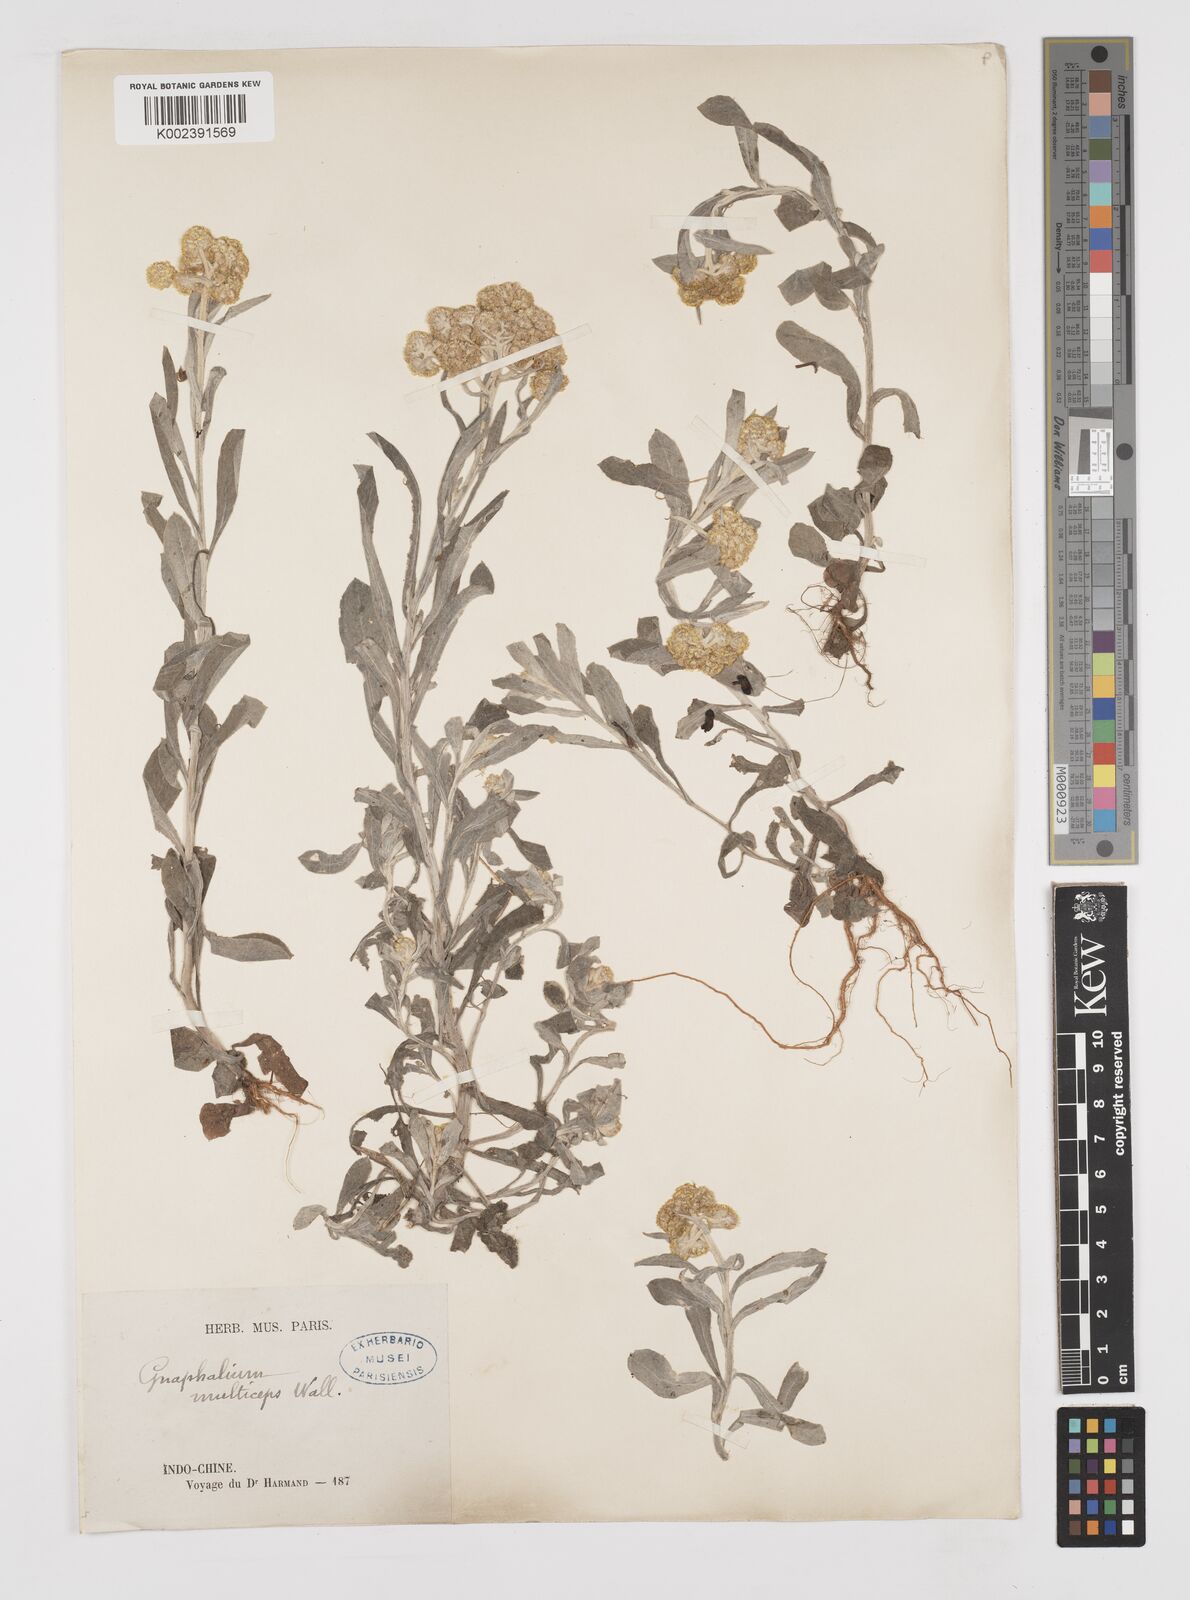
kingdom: Plantae
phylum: Tracheophyta
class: Magnoliopsida
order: Asterales
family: Asteraceae
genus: Pseudognaphalium
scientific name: Pseudognaphalium affine
